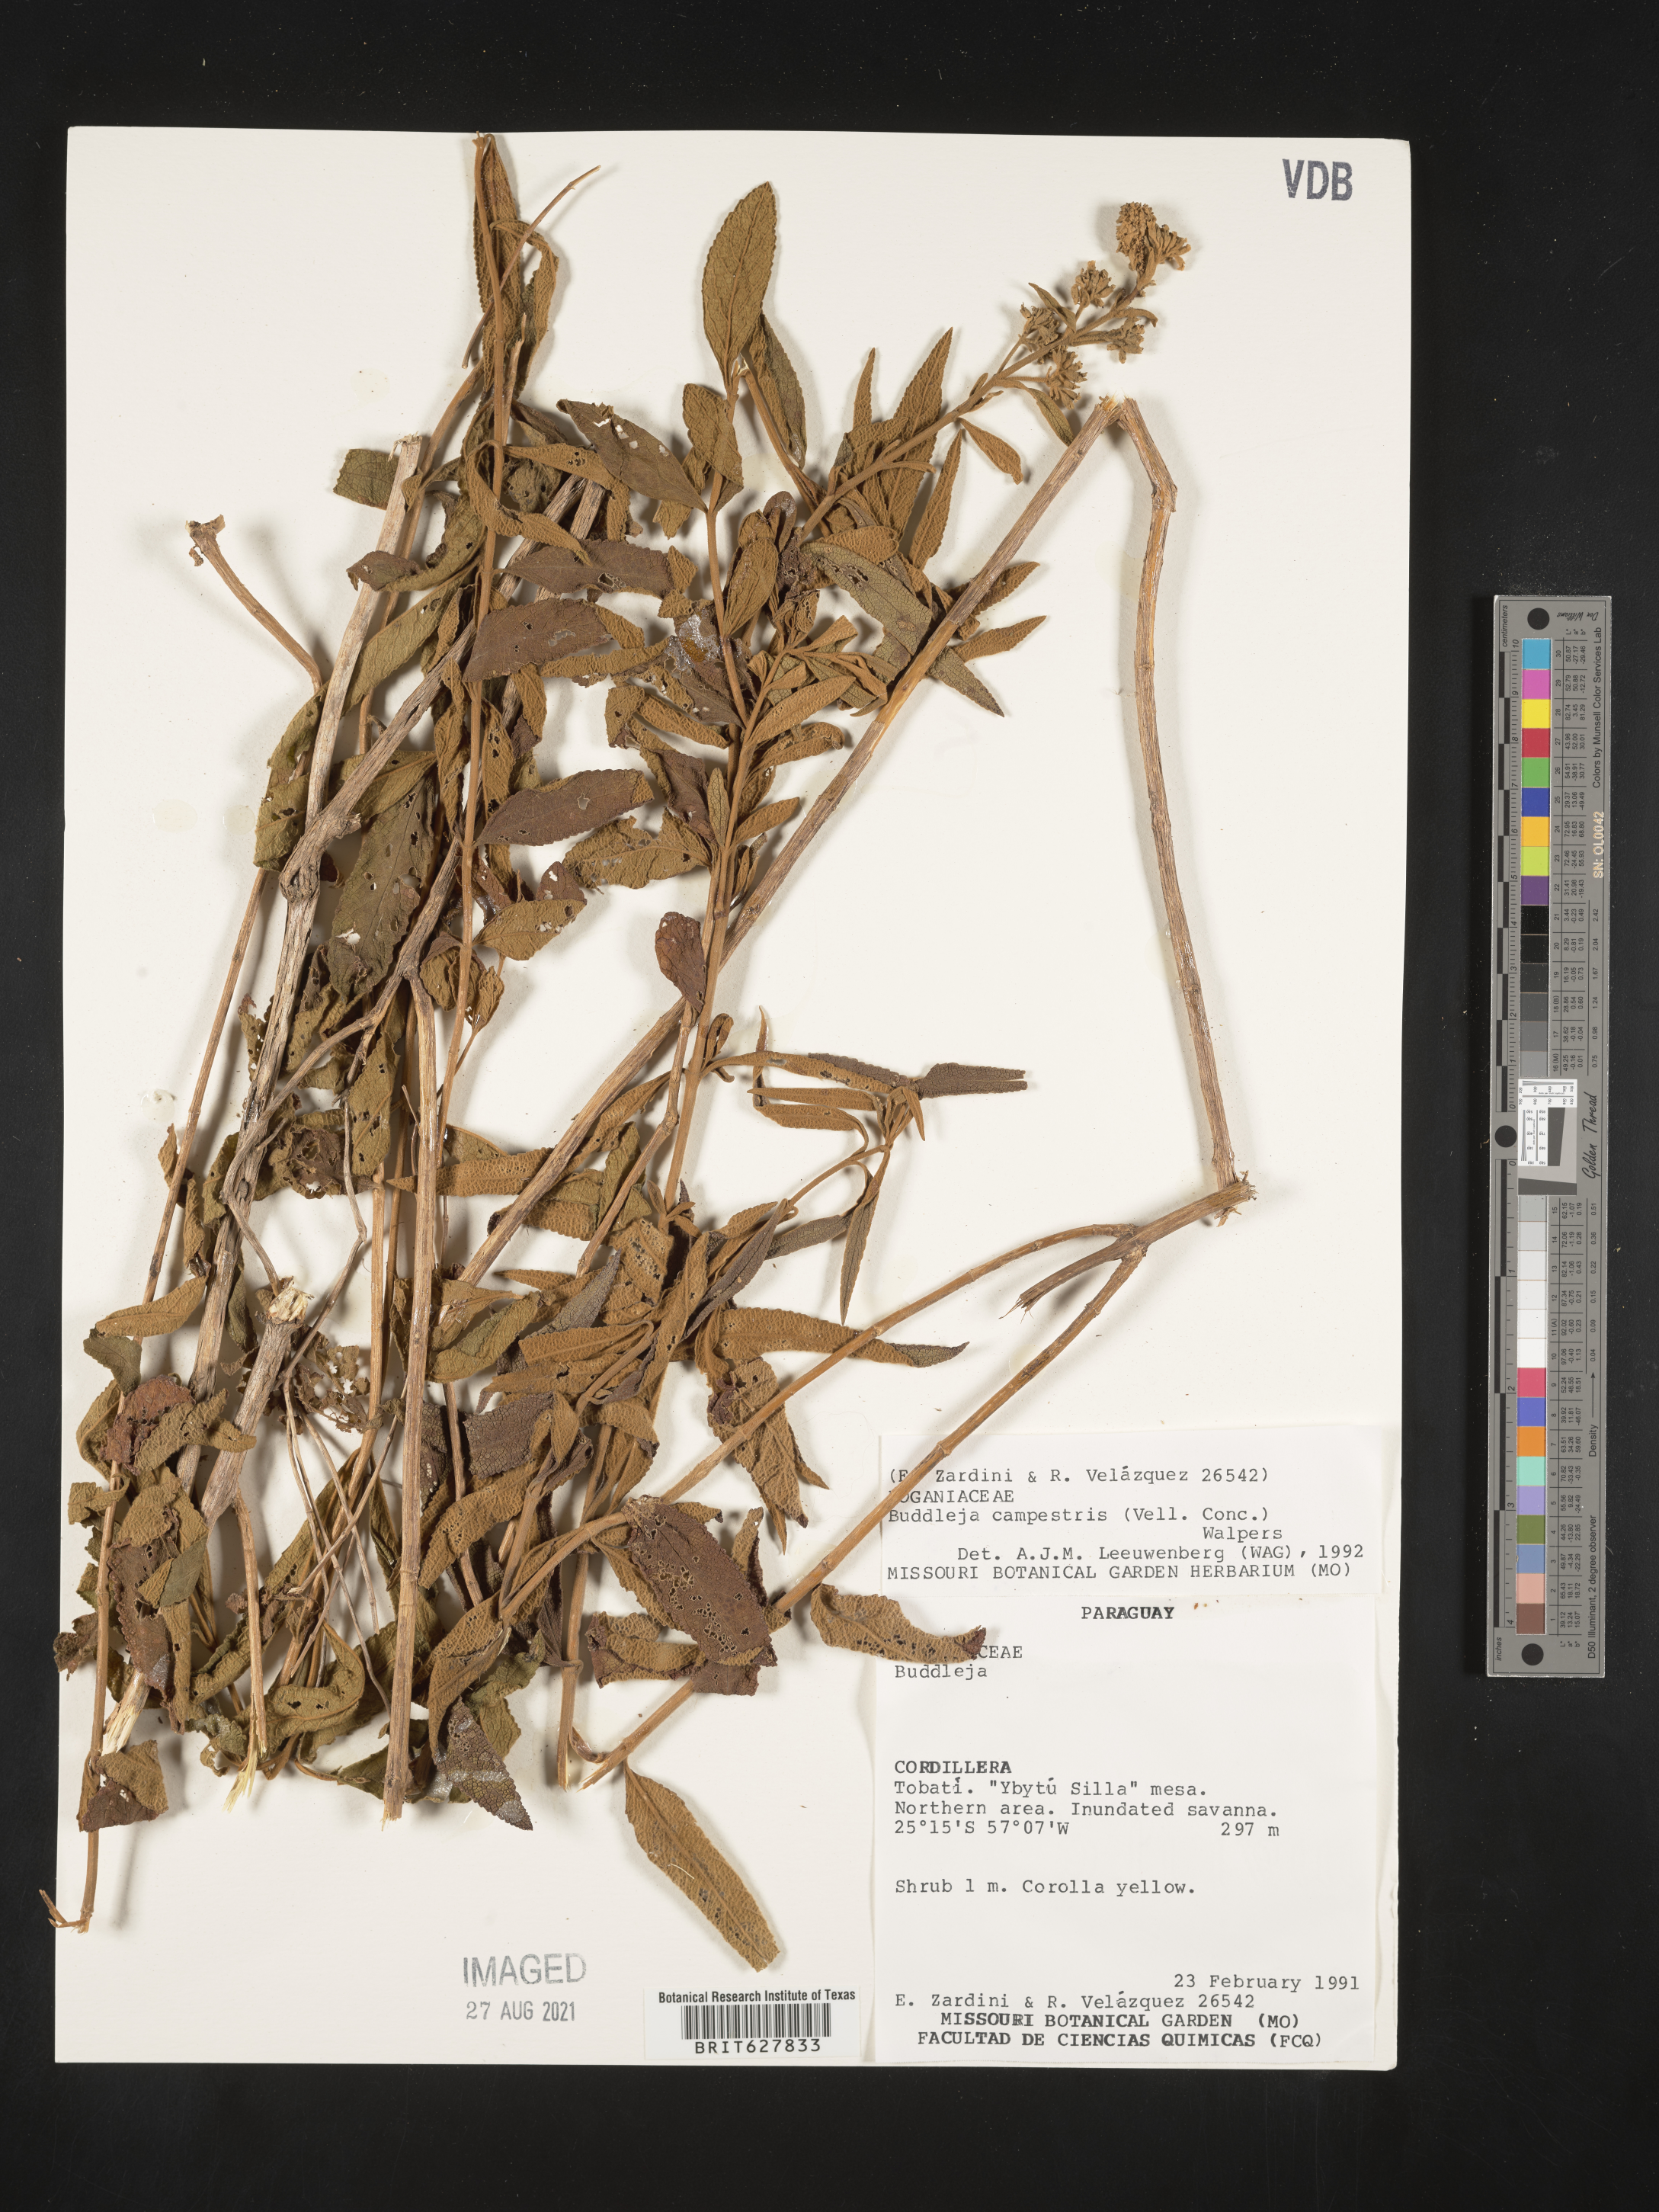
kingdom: Plantae
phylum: Tracheophyta
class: Magnoliopsida
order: Lamiales
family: Scrophulariaceae
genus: Buddleja
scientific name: Buddleja
